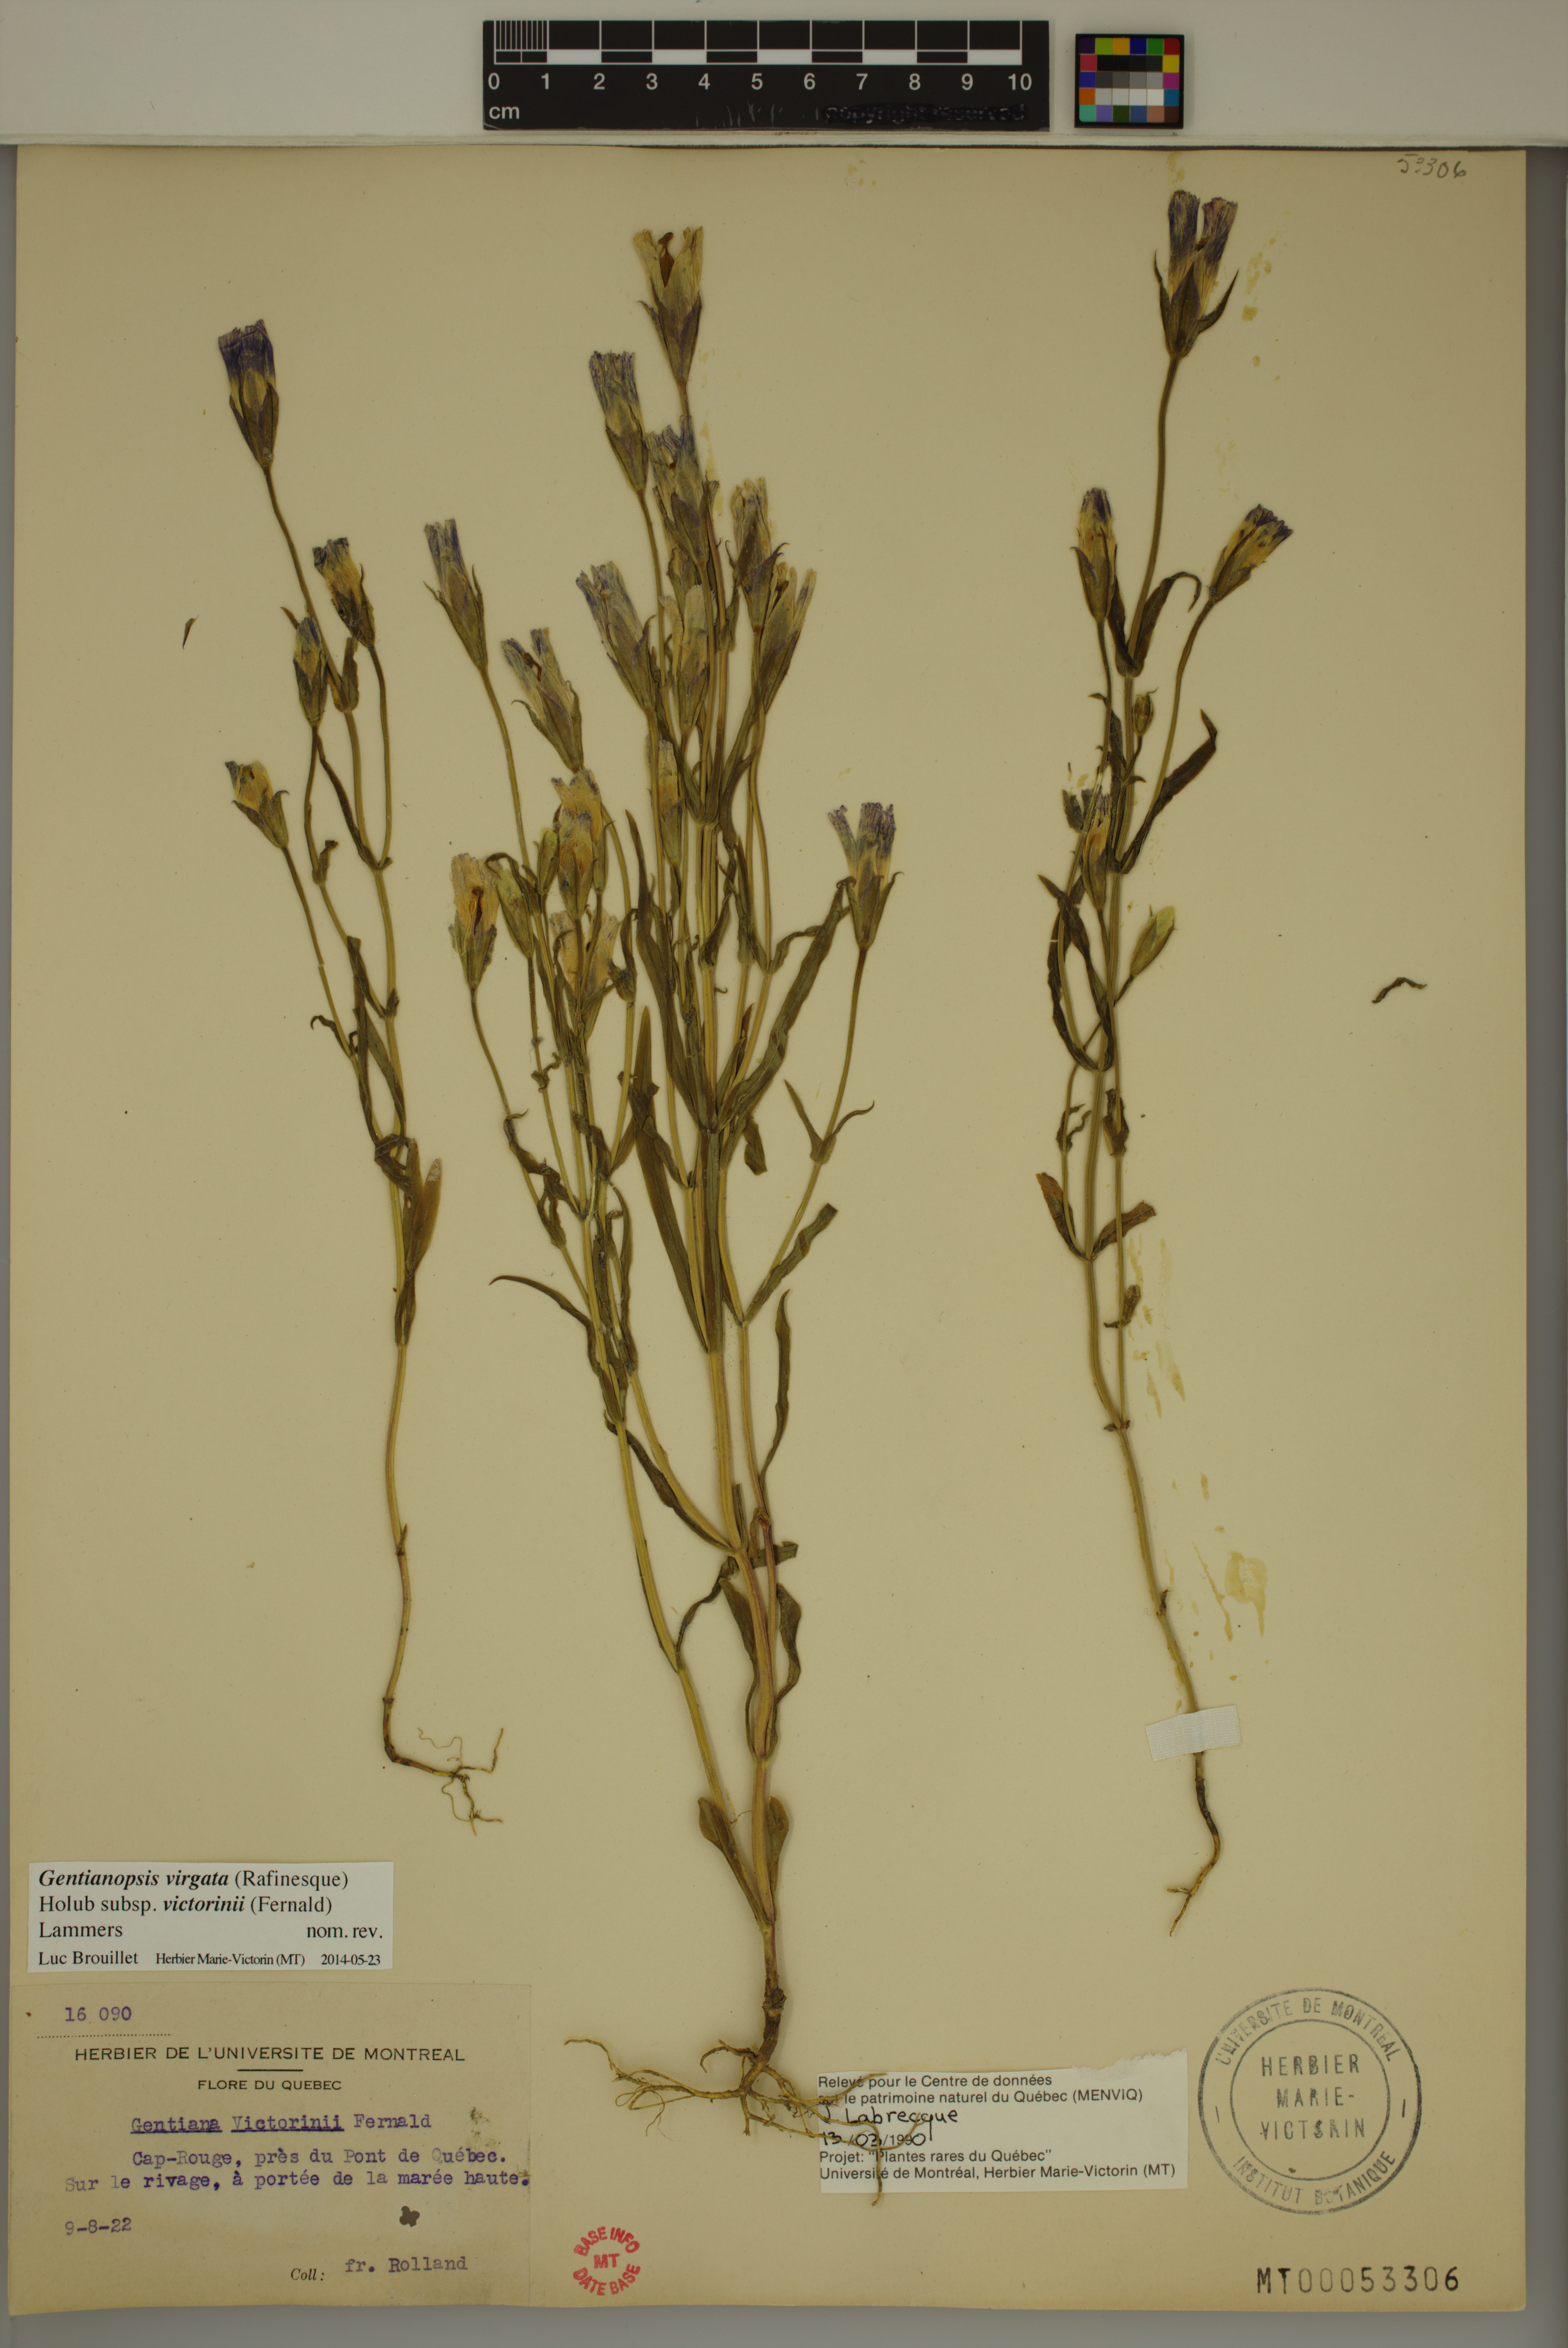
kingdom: Plantae
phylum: Tracheophyta
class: Magnoliopsida
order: Gentianales
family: Gentianaceae
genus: Gentianopsis
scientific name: Gentianopsis victorinii
